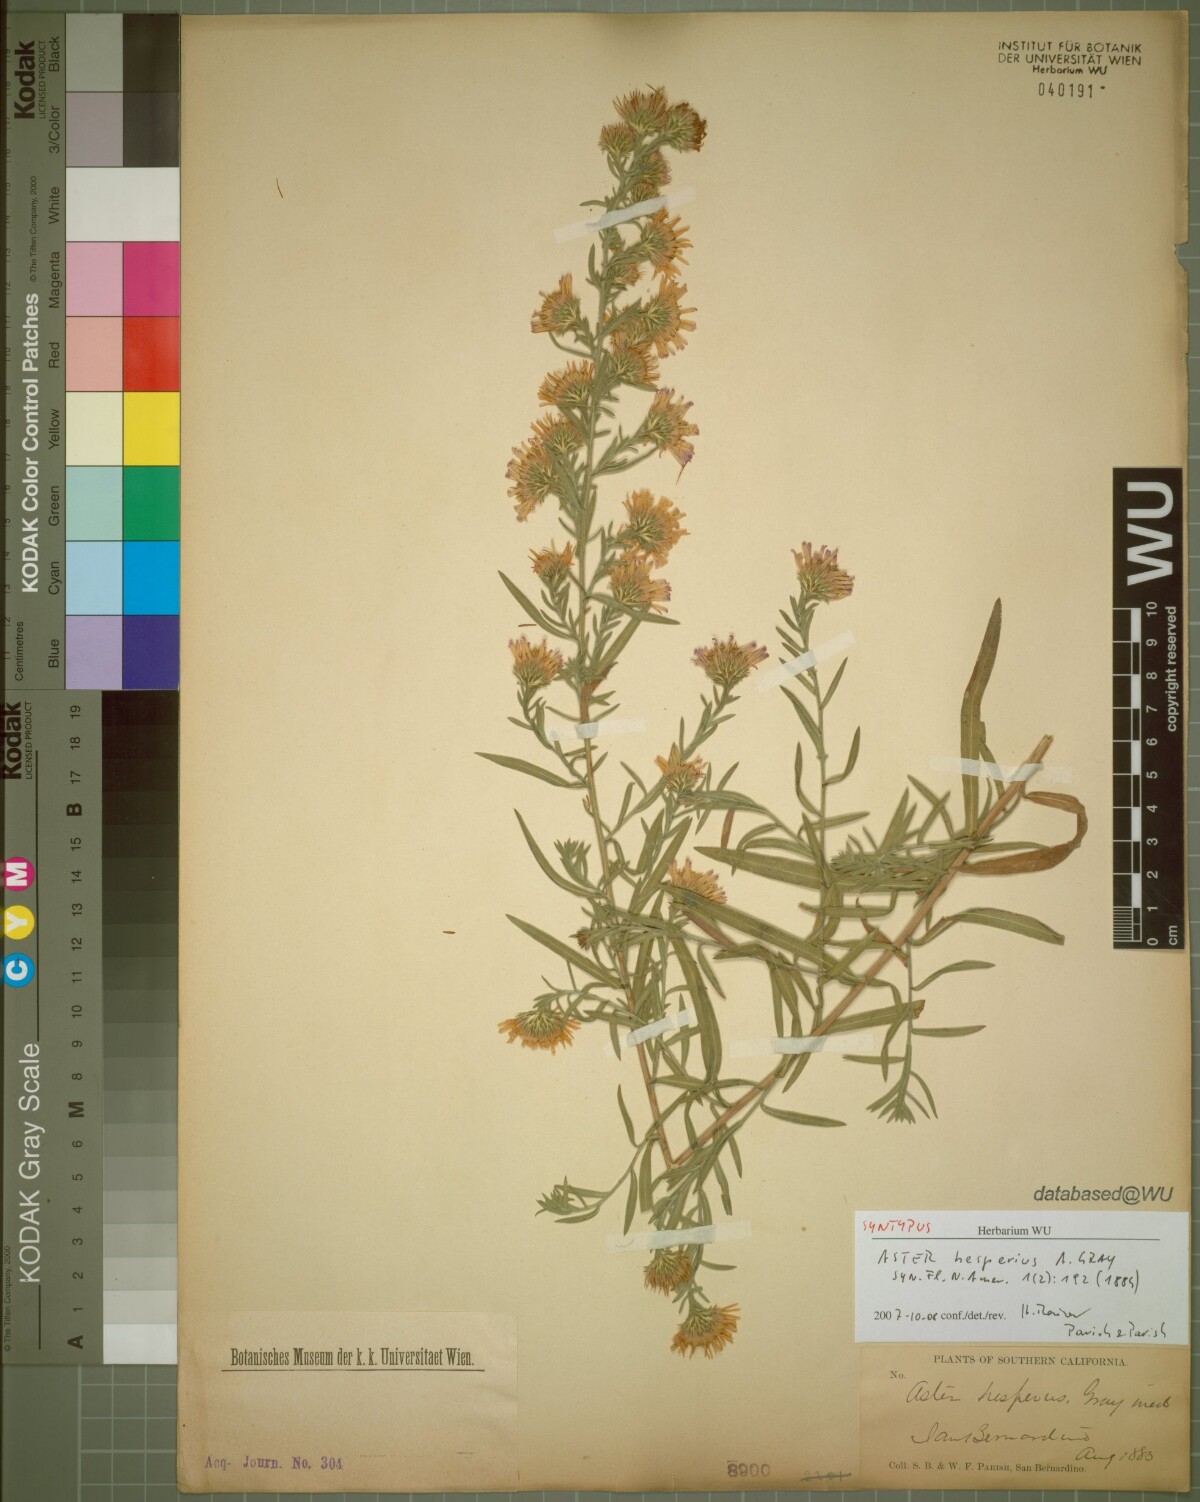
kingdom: Plantae
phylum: Tracheophyta
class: Magnoliopsida
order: Asterales
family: Asteraceae
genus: Symphyotrichum
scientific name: Symphyotrichum lanceolatum
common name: Panicled aster
